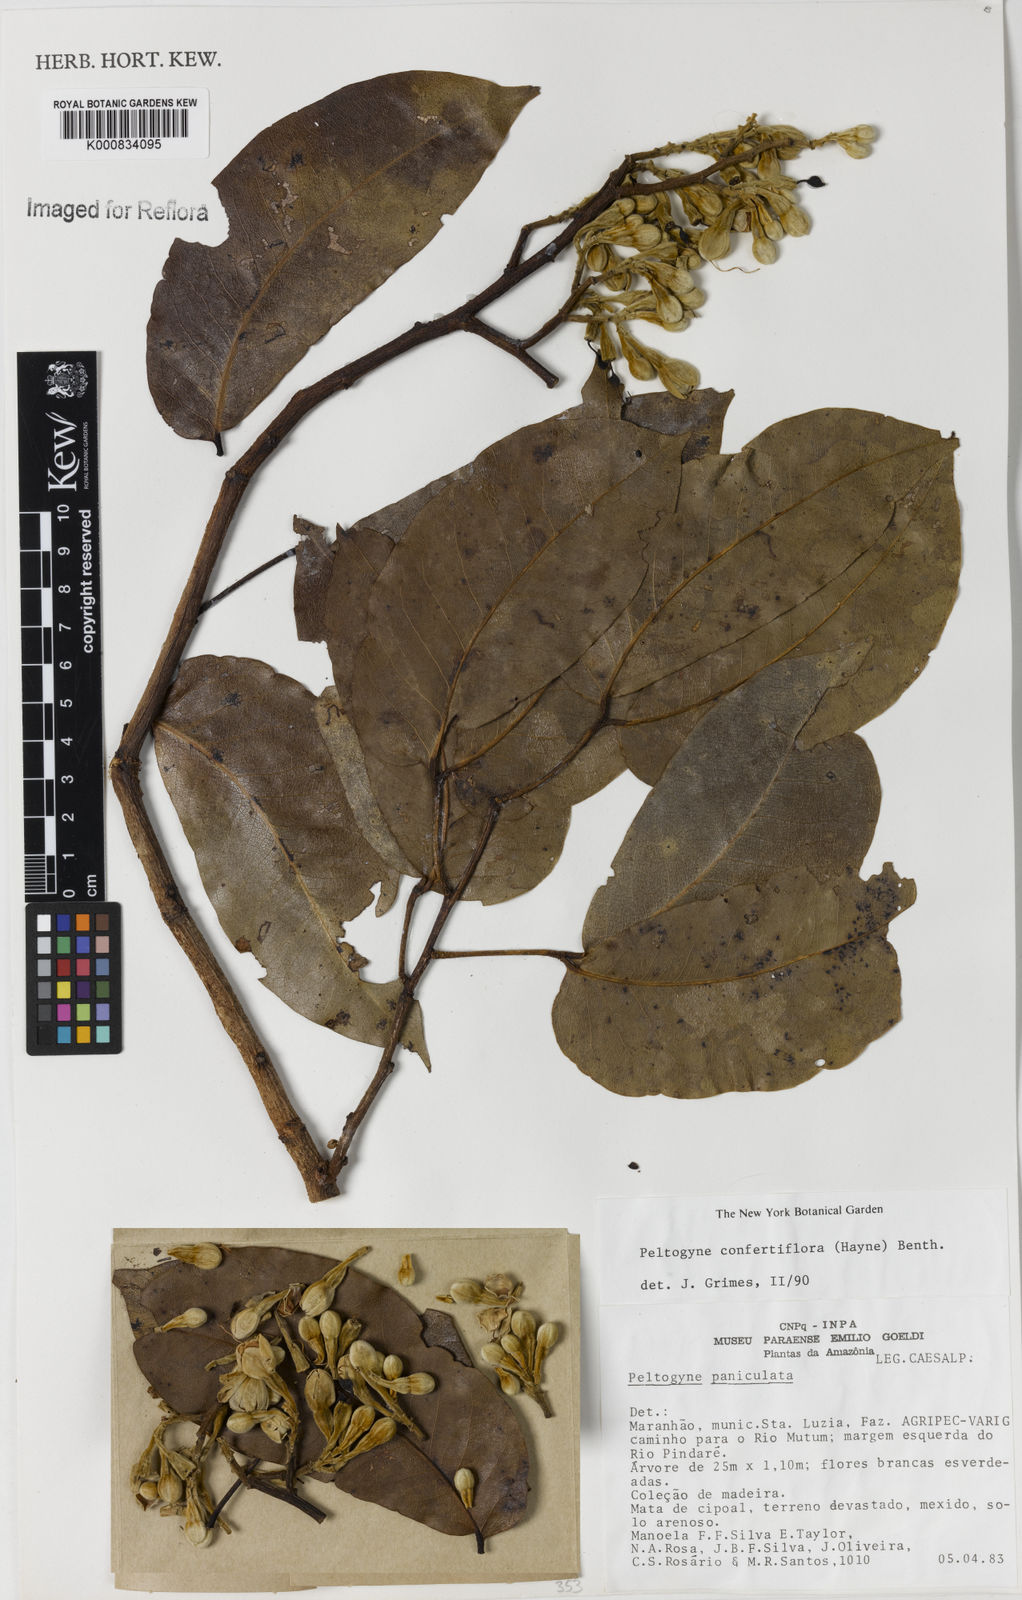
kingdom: Plantae
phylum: Tracheophyta
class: Magnoliopsida
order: Fabales
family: Fabaceae
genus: Peltogyne
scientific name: Peltogyne confertiflora
